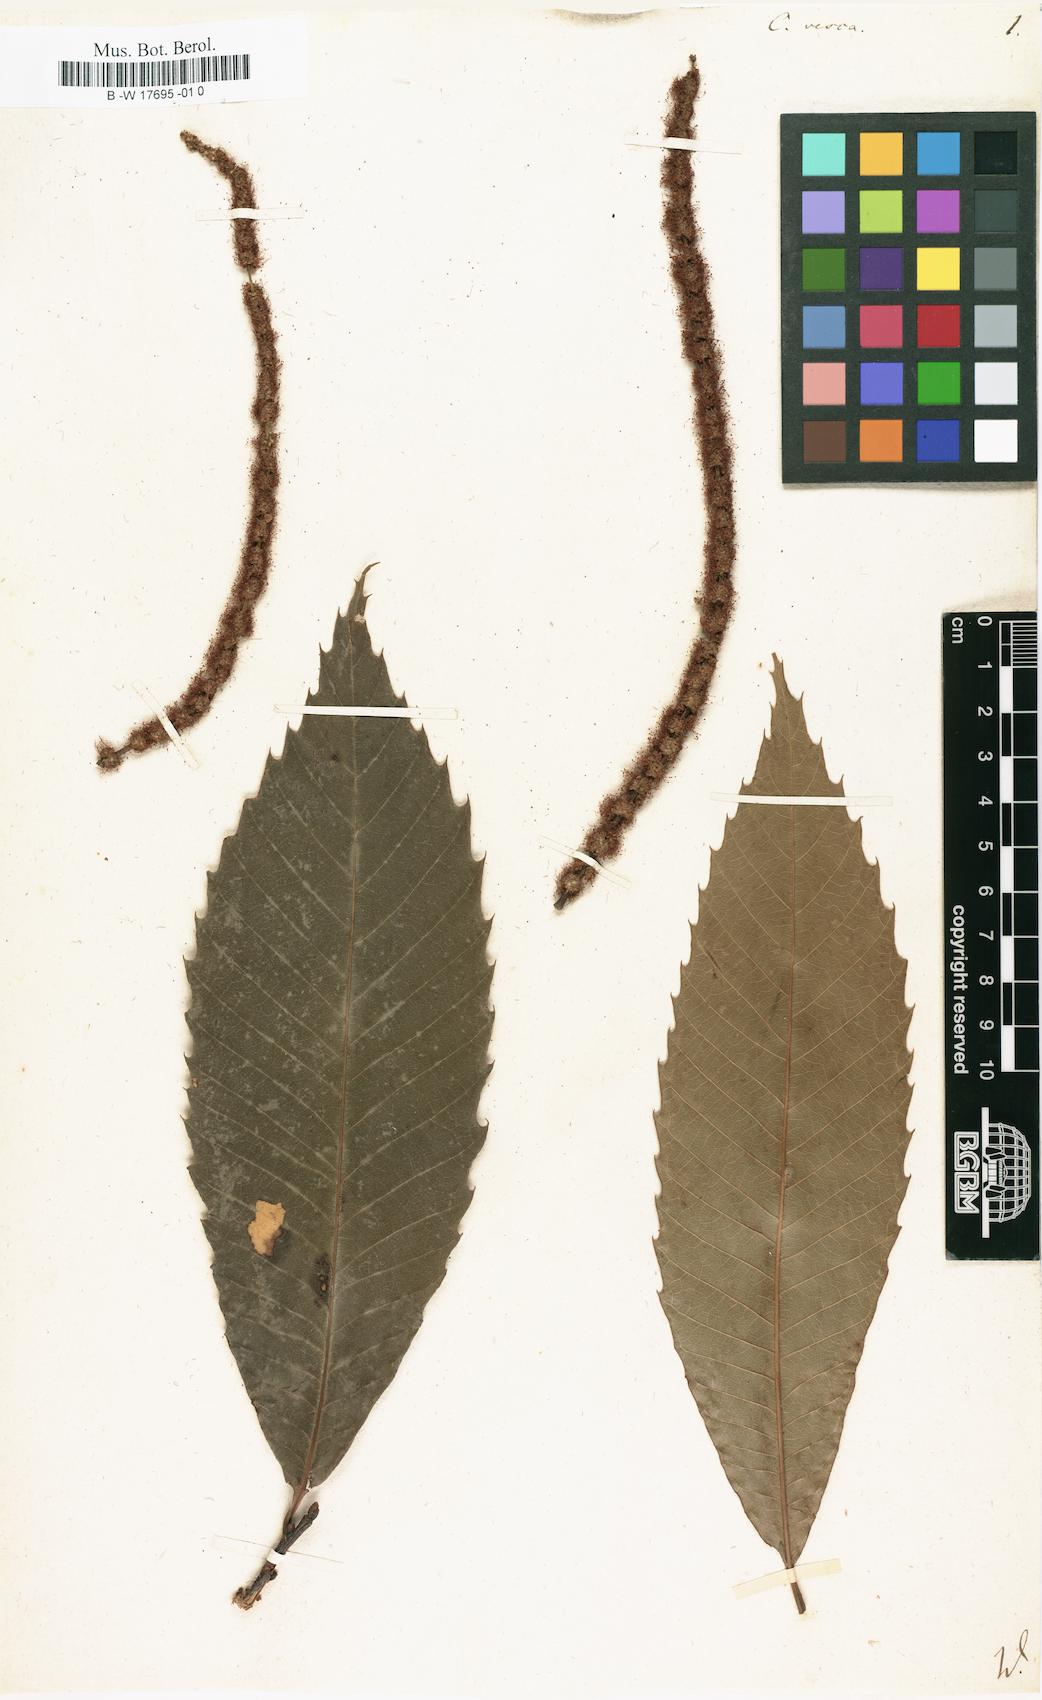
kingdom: Plantae
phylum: Tracheophyta
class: Magnoliopsida
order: Fagales
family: Fagaceae
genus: Castanea
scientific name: Castanea sativa
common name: Sweet chestnut
